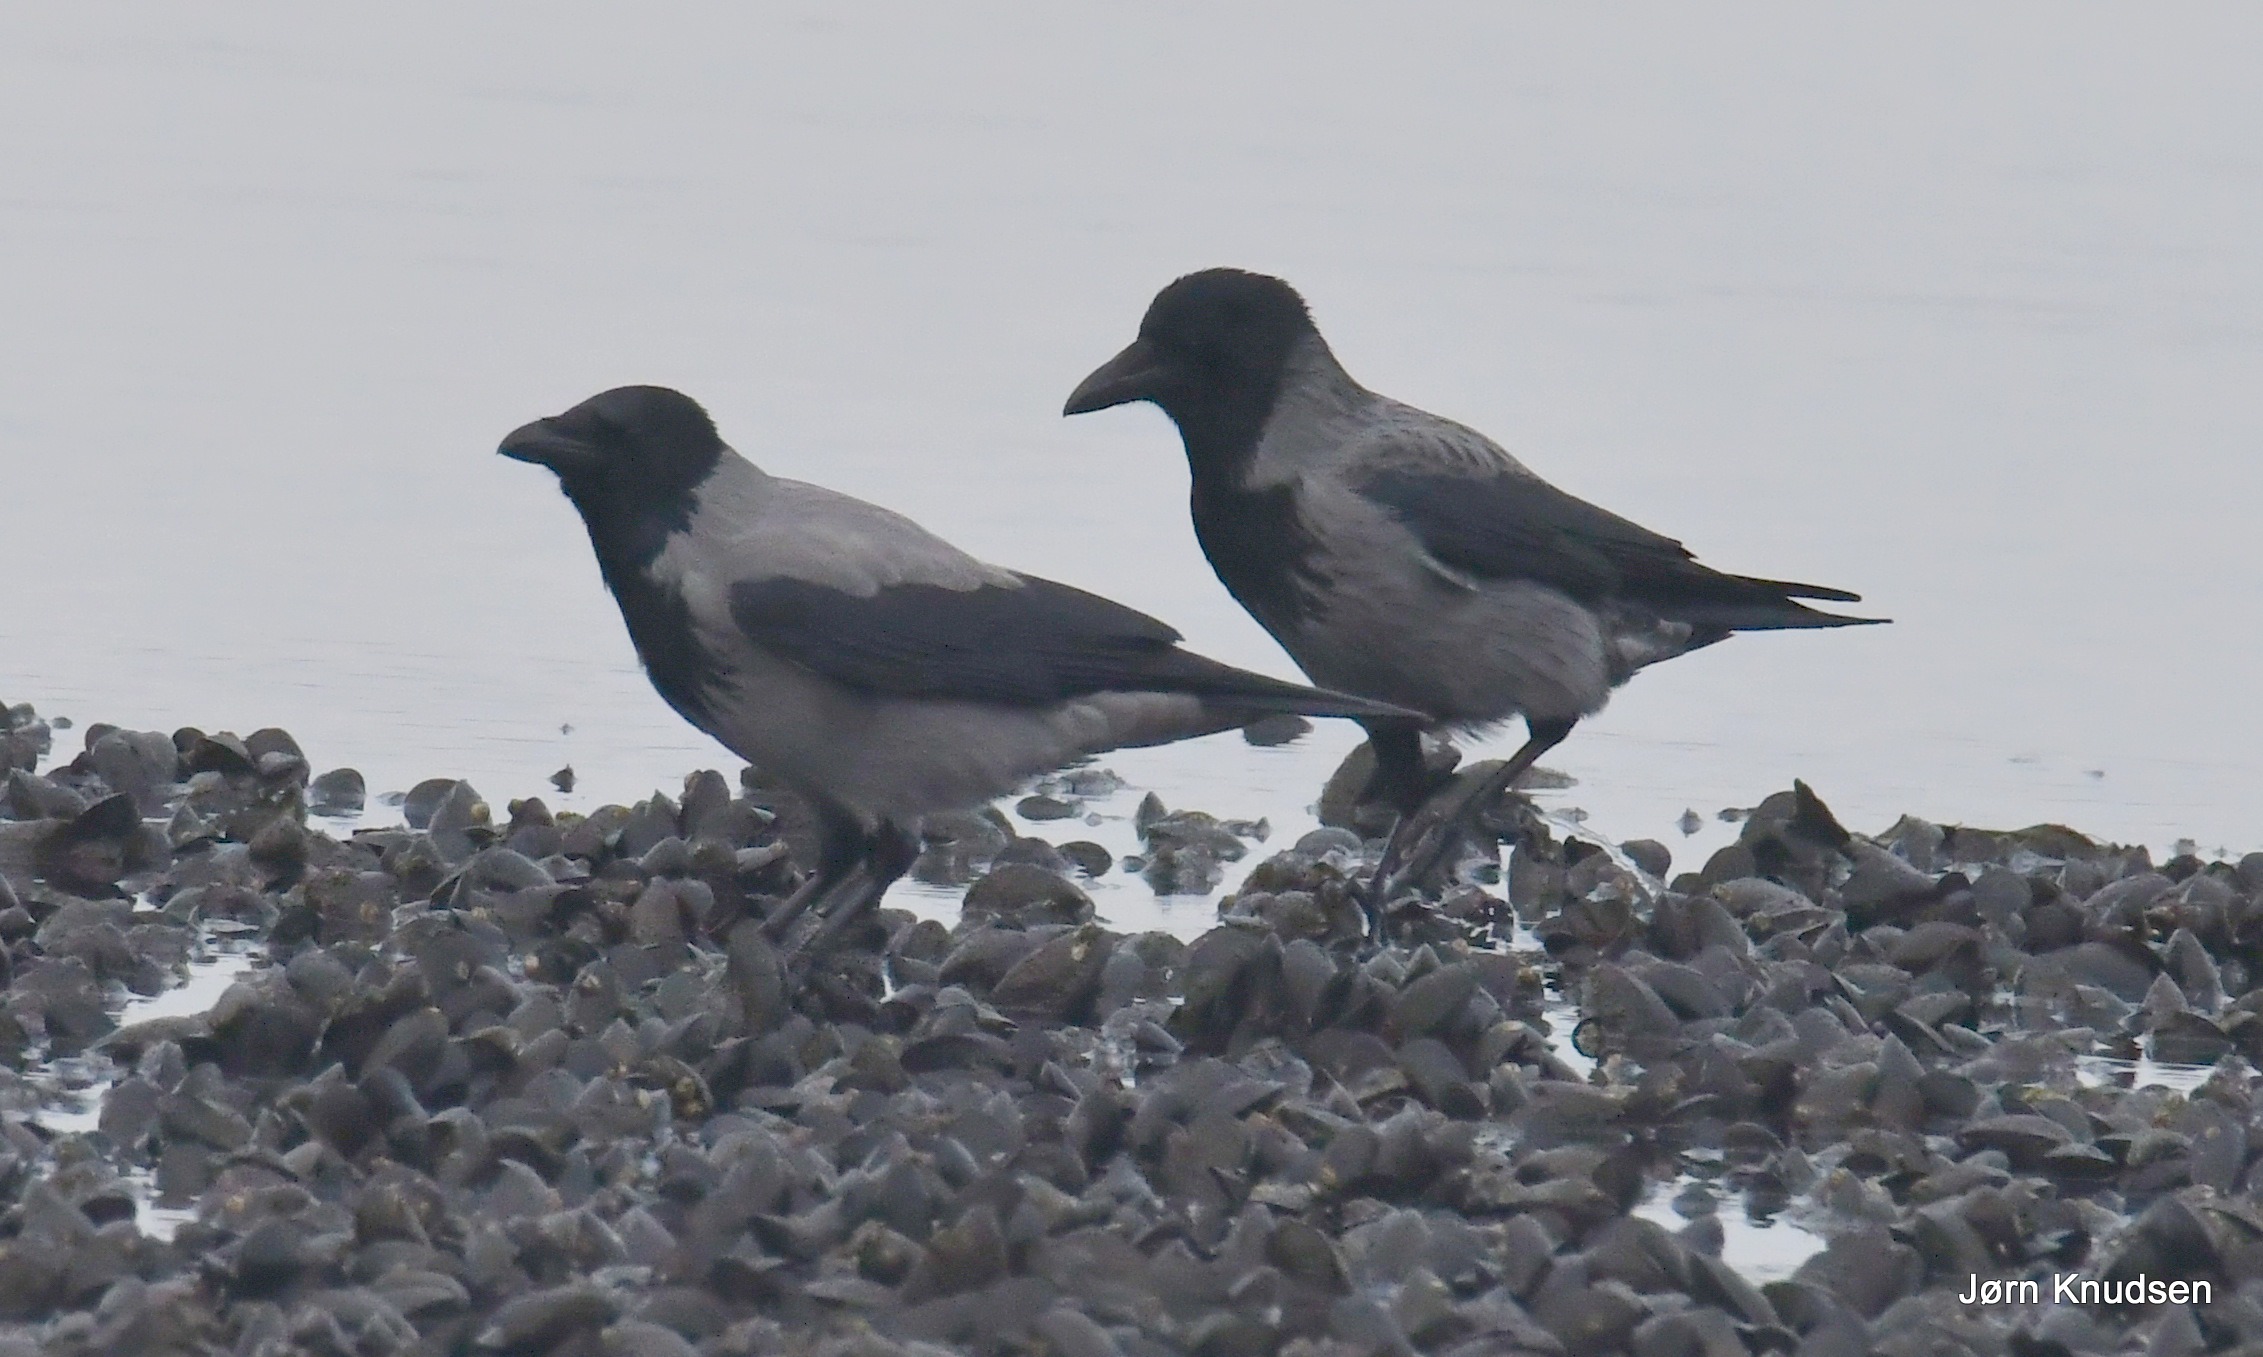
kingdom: Animalia
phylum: Chordata
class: Aves
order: Passeriformes
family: Corvidae
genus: Corvus
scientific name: Corvus cornix
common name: Gråkrage
